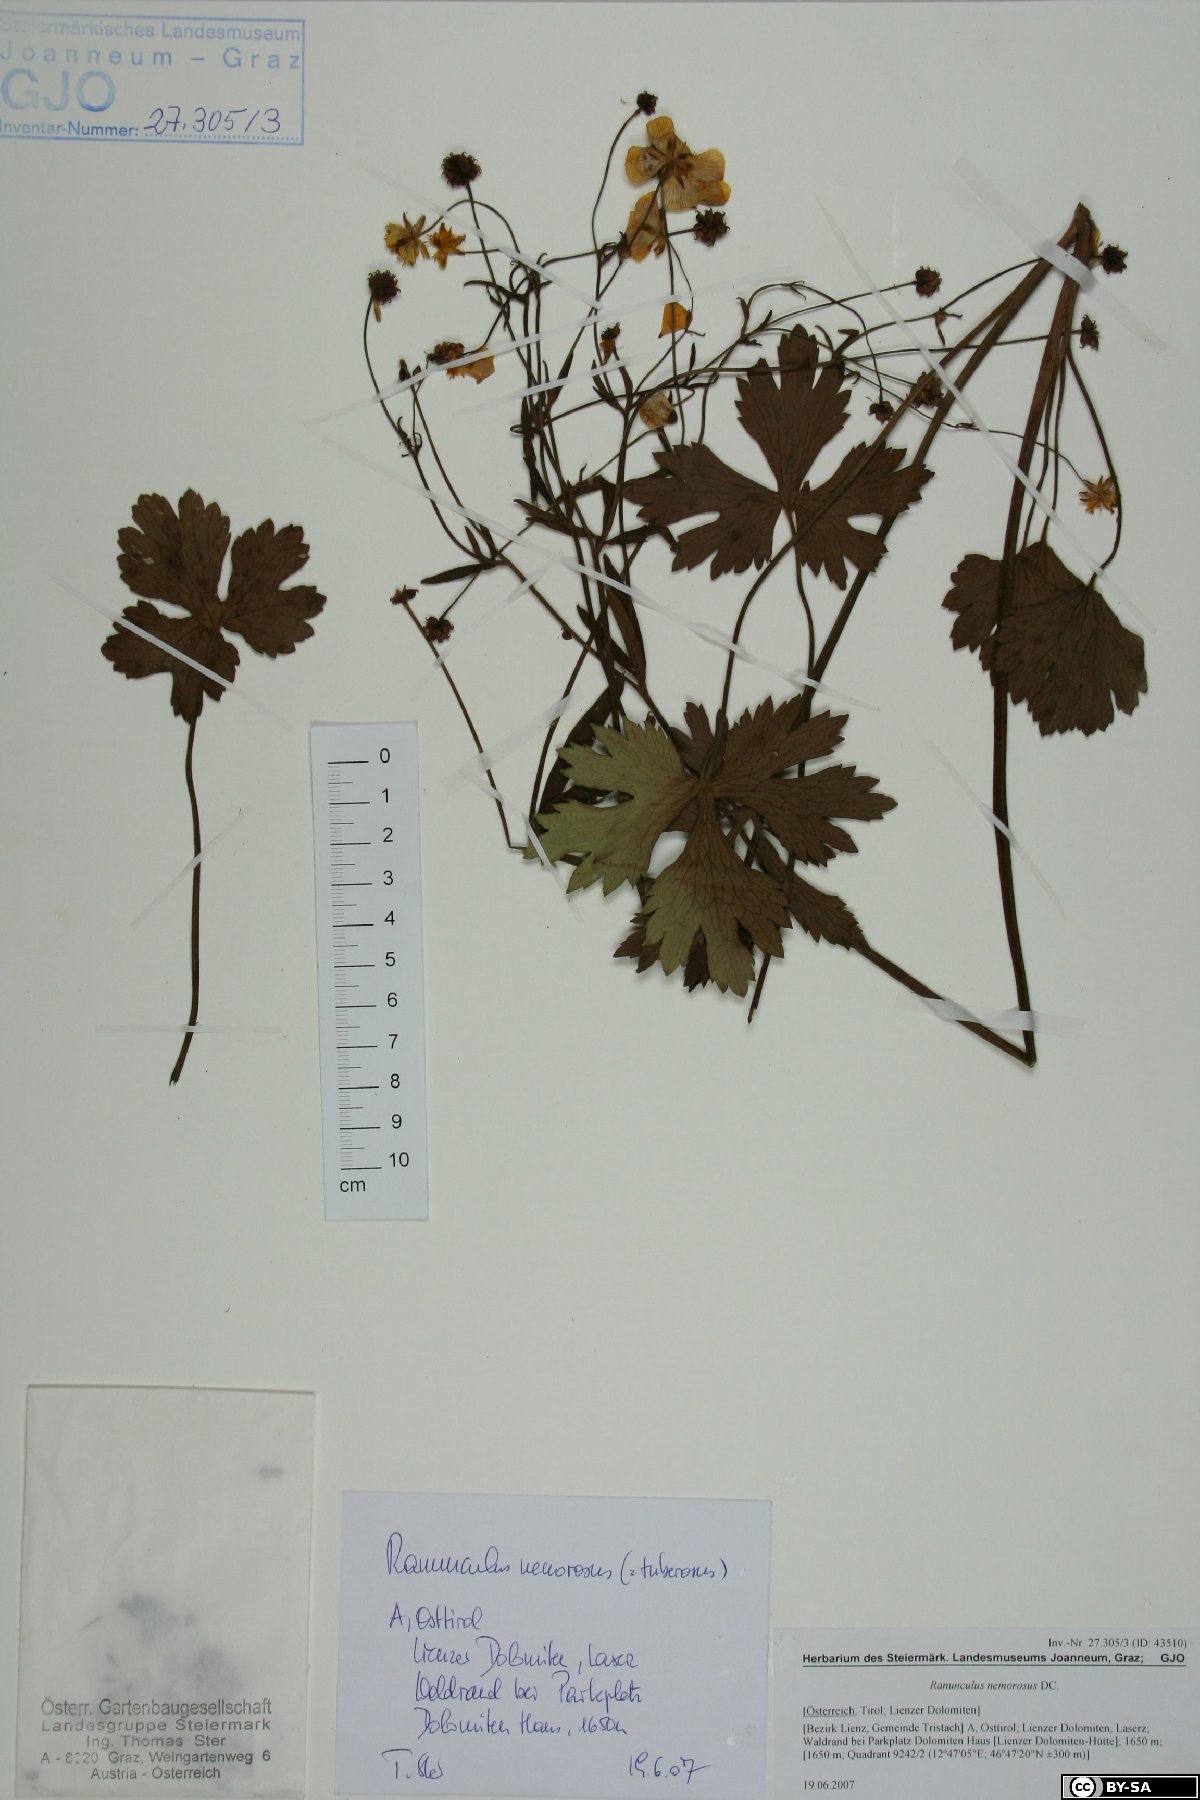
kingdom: Plantae
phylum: Tracheophyta
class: Magnoliopsida
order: Ranunculales
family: Ranunculaceae
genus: Ranunculus
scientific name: Ranunculus polyanthemos
